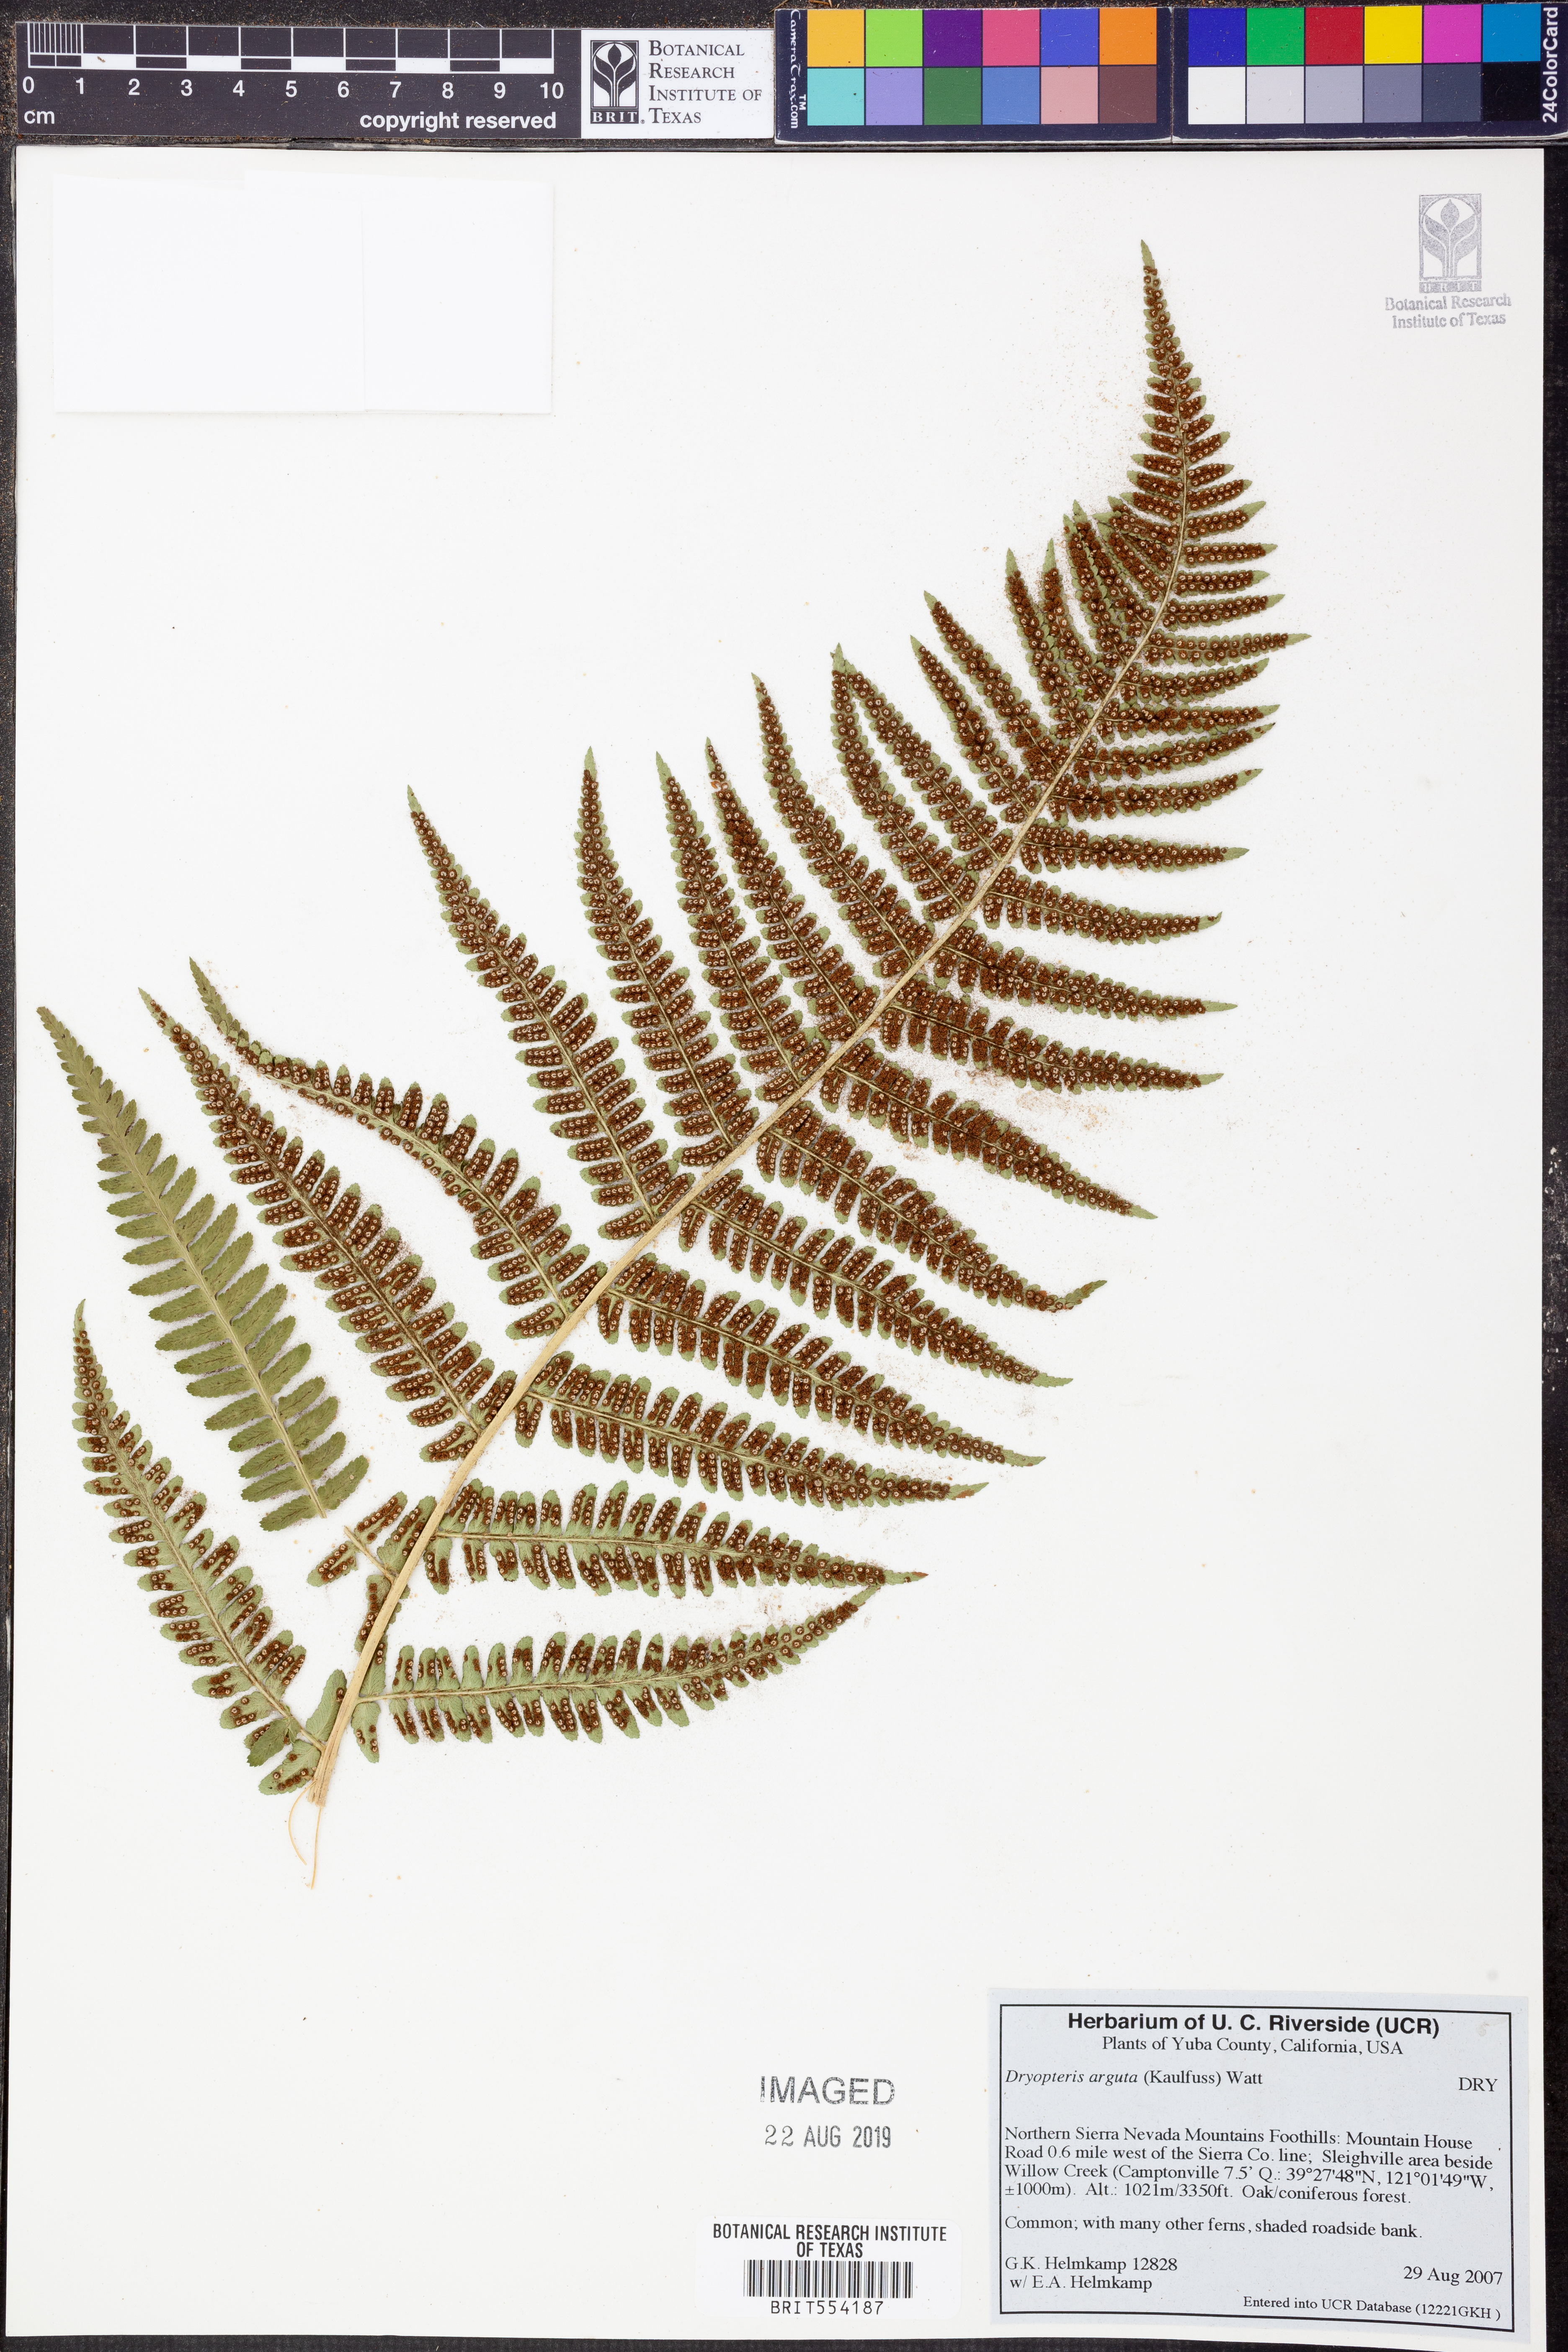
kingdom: Plantae
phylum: Tracheophyta
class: Polypodiopsida
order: Polypodiales
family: Dryopteridaceae
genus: Dryopteris
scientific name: Dryopteris arguta
